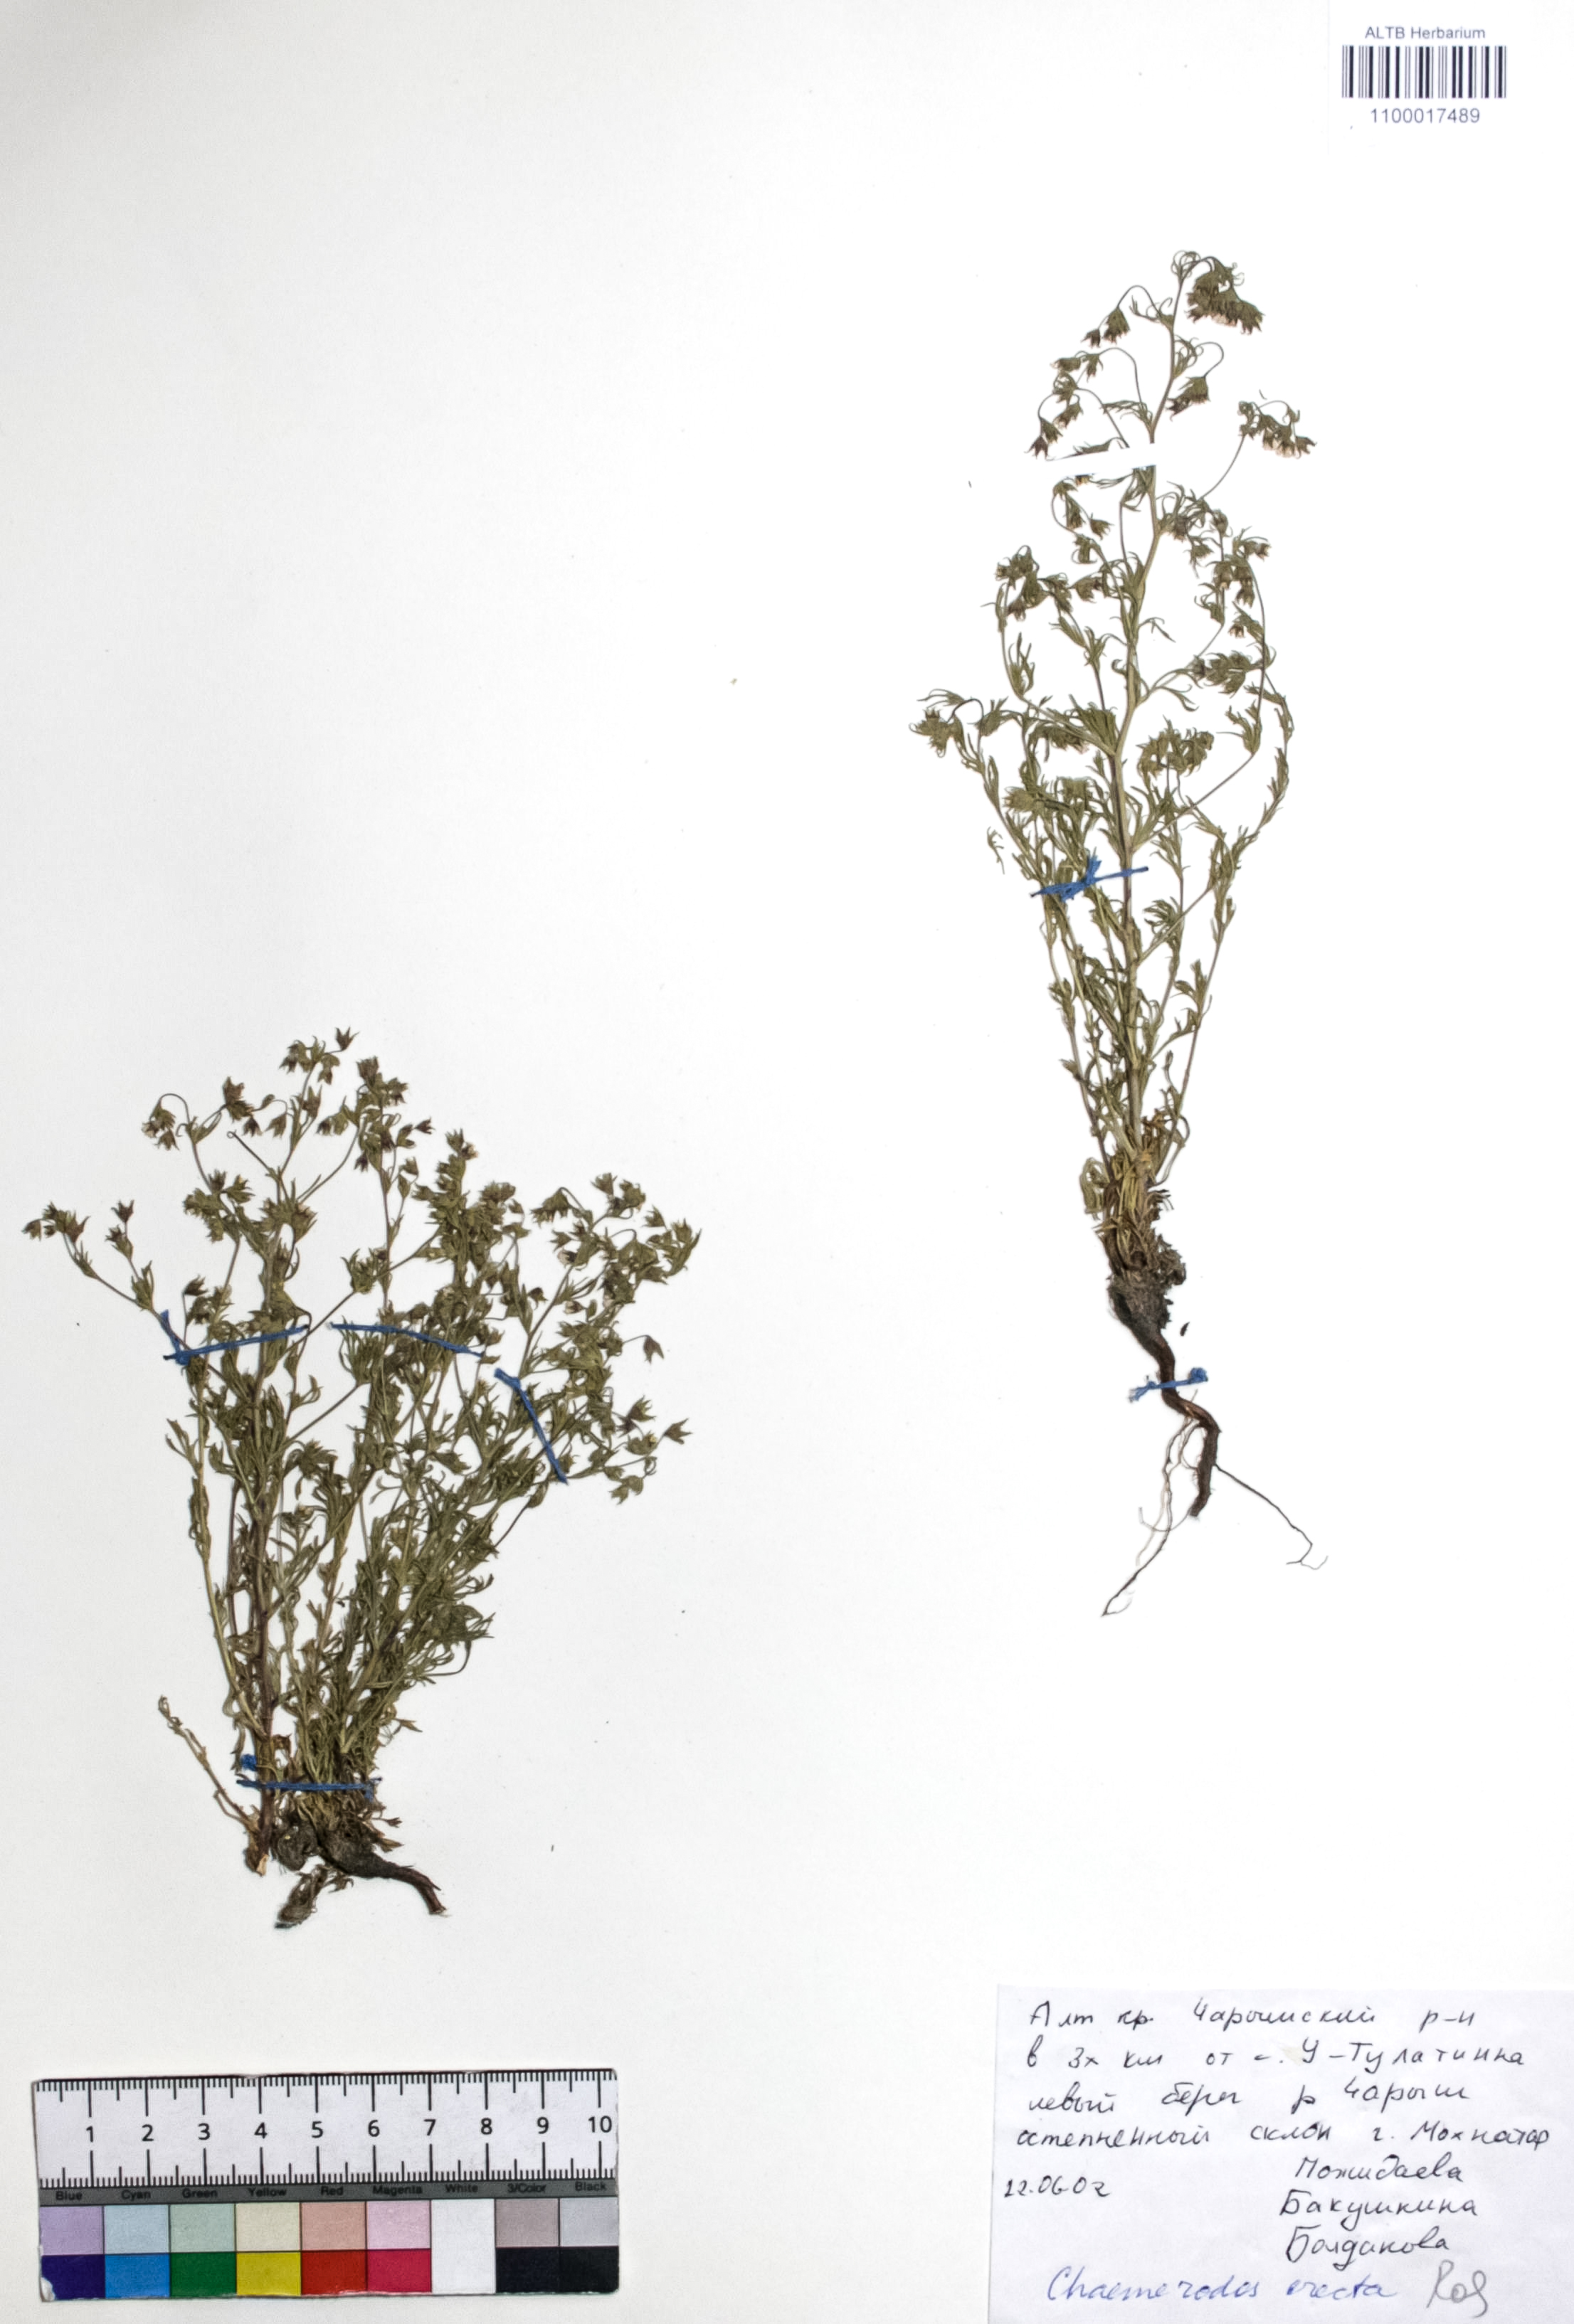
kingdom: Plantae
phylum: Tracheophyta
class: Magnoliopsida
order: Rosales
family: Rosaceae
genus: Chamaerhodos
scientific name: Chamaerhodos erecta
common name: American chamaerhodos
